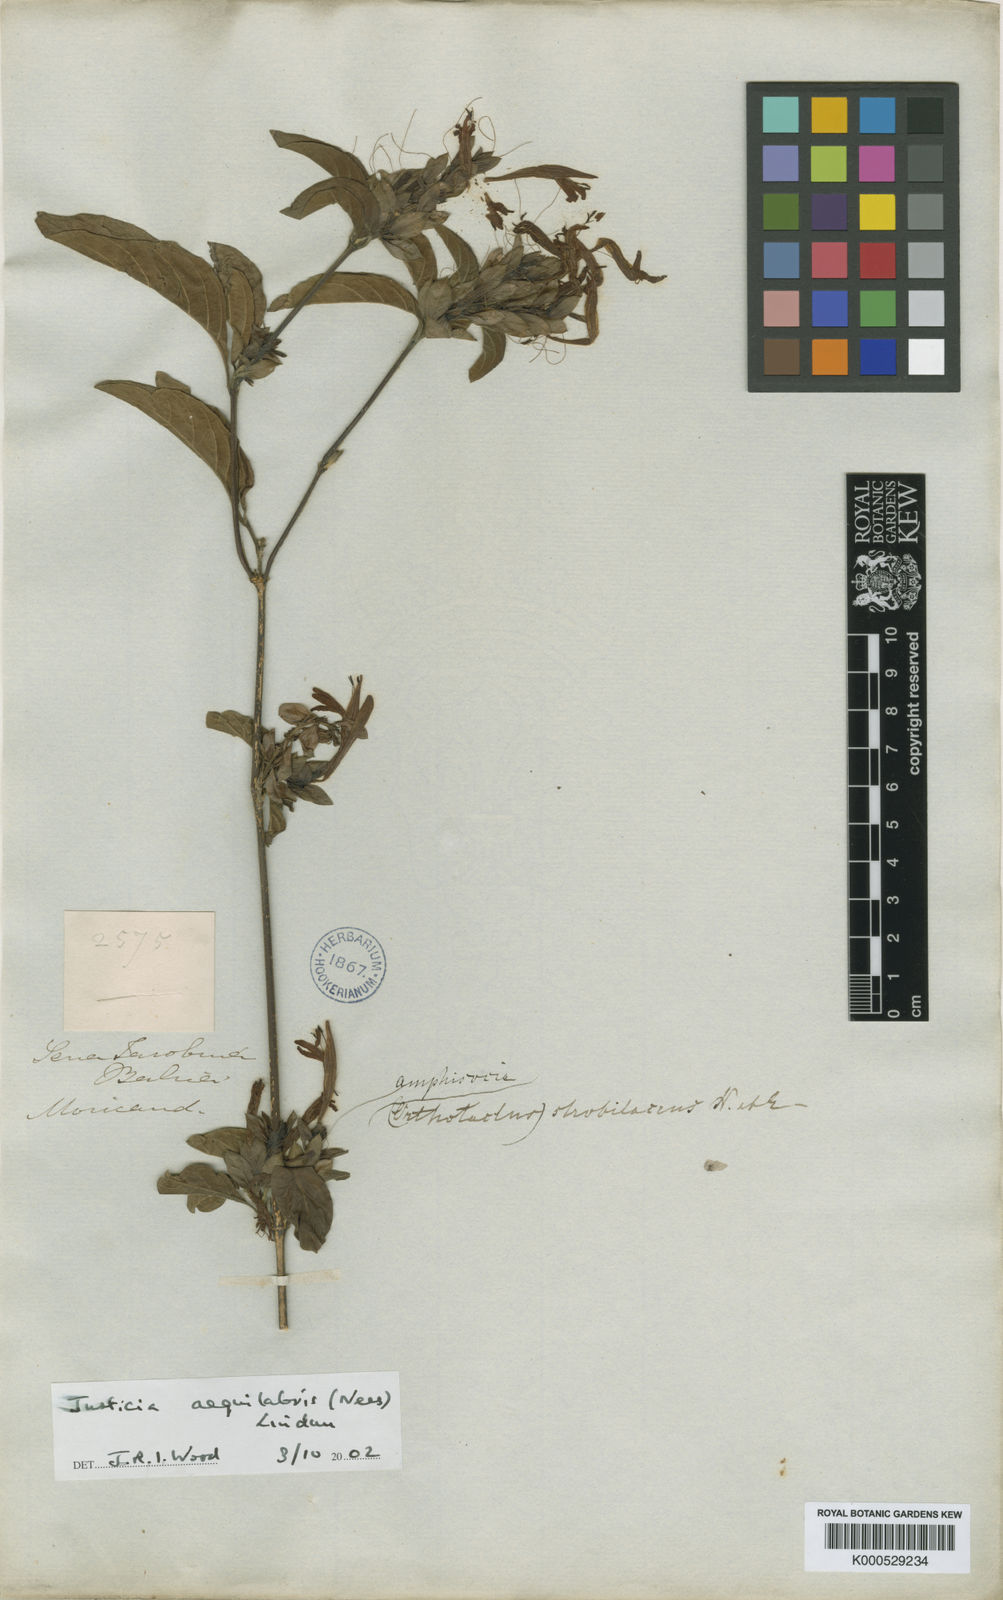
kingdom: Plantae
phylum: Tracheophyta
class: Magnoliopsida
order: Lamiales
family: Acanthaceae
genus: Justicia
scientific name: Justicia aequilabris
